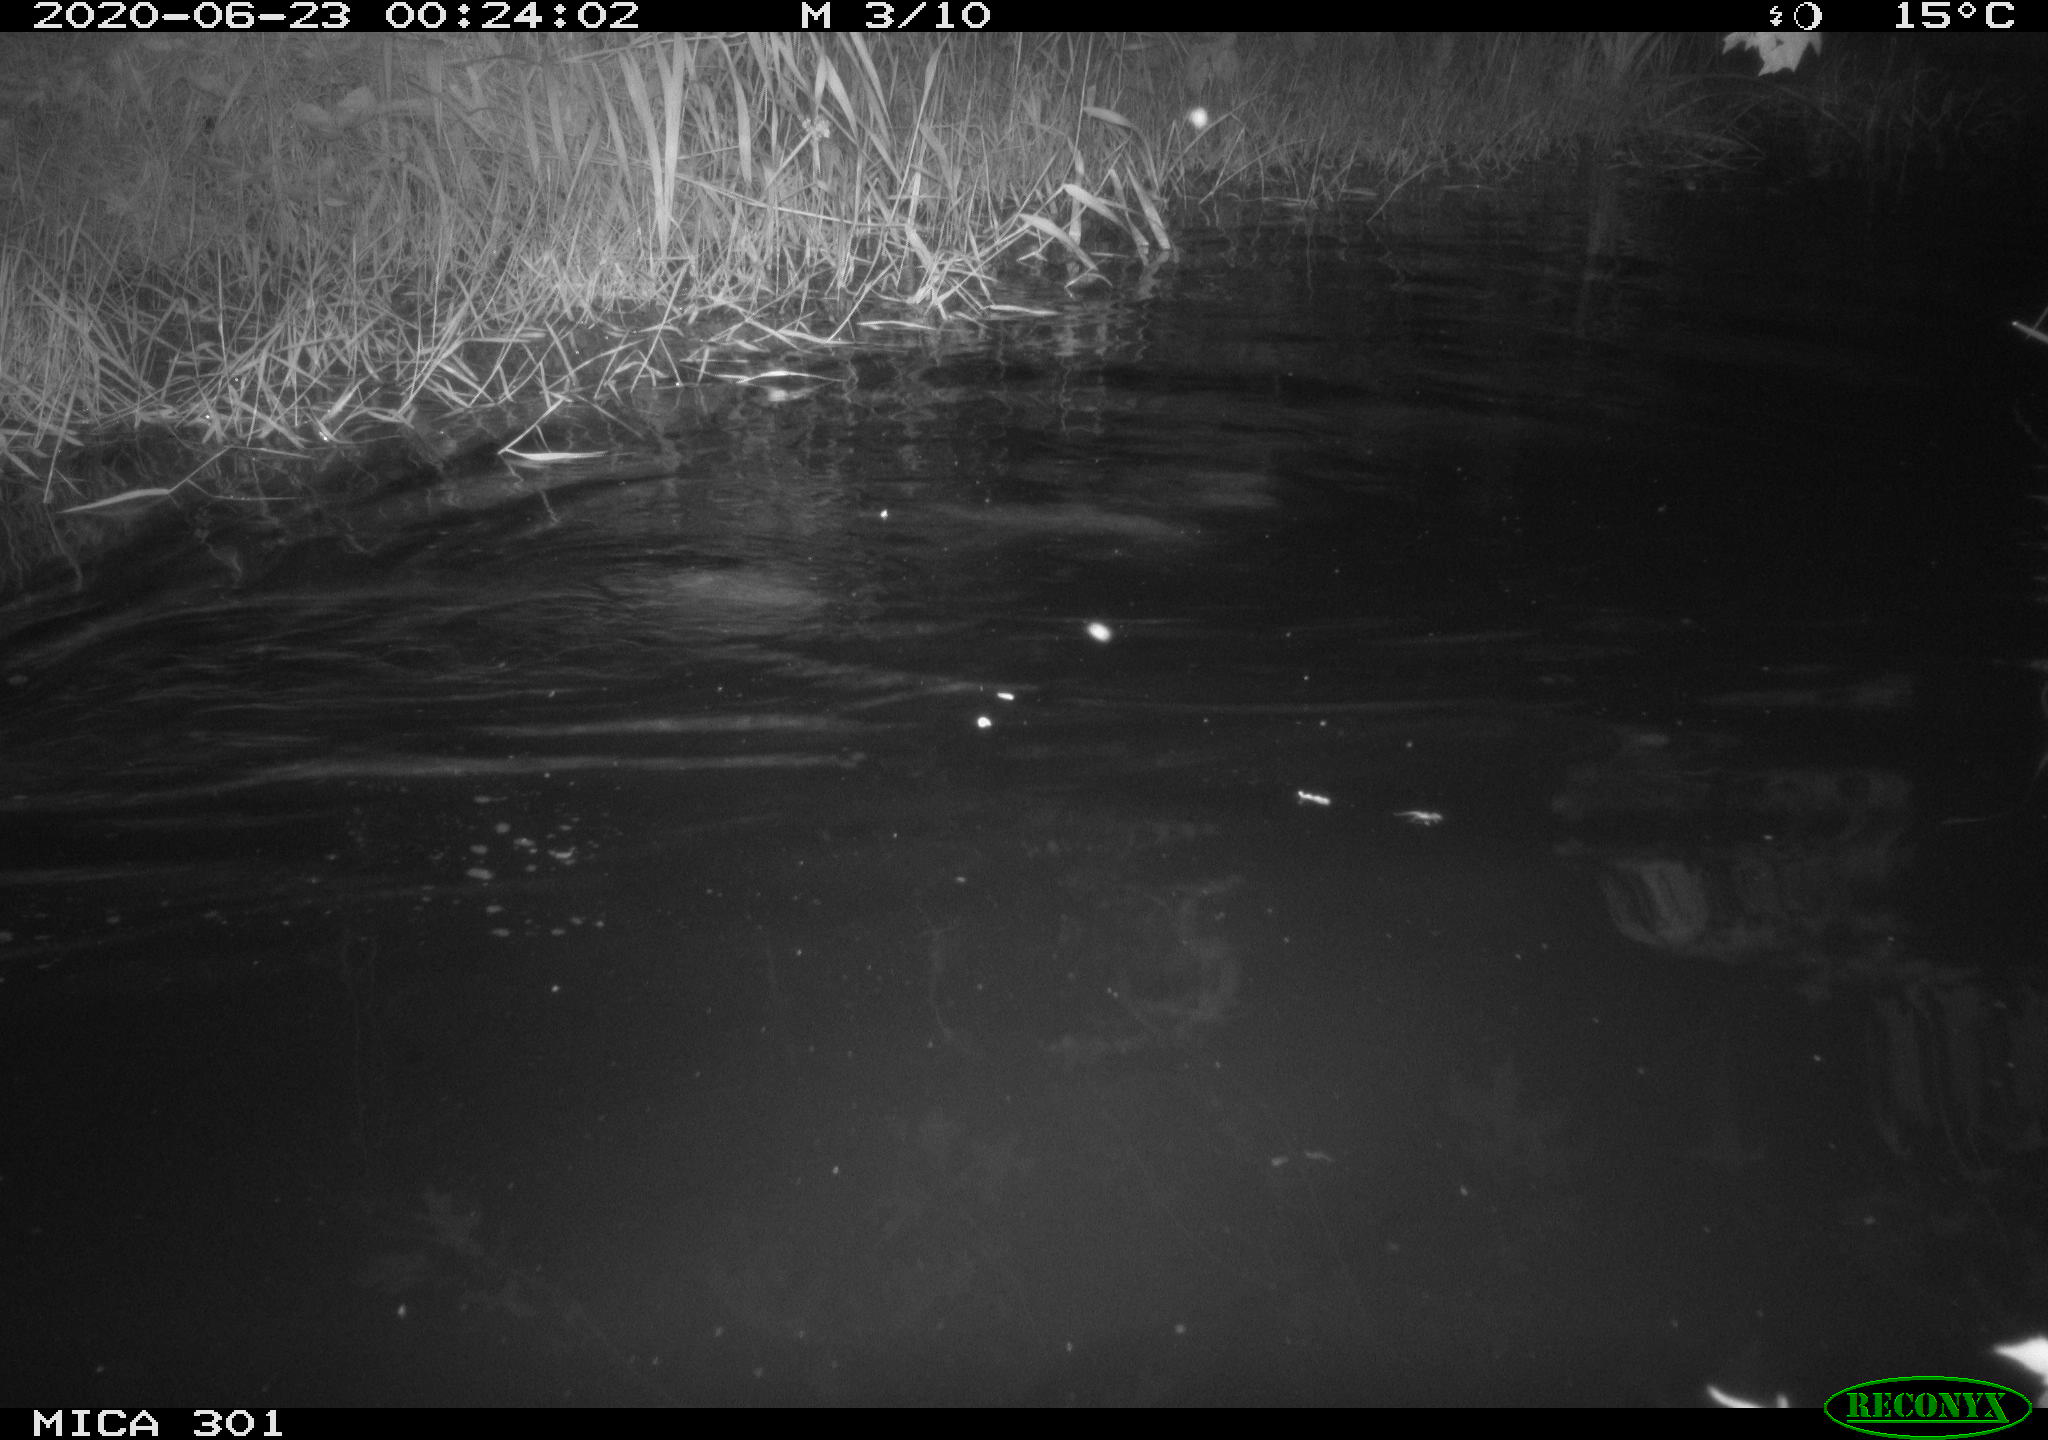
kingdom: Animalia
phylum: Chordata
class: Mammalia
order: Rodentia
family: Castoridae
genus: Castor
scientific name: Castor fiber
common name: Eurasian beaver
